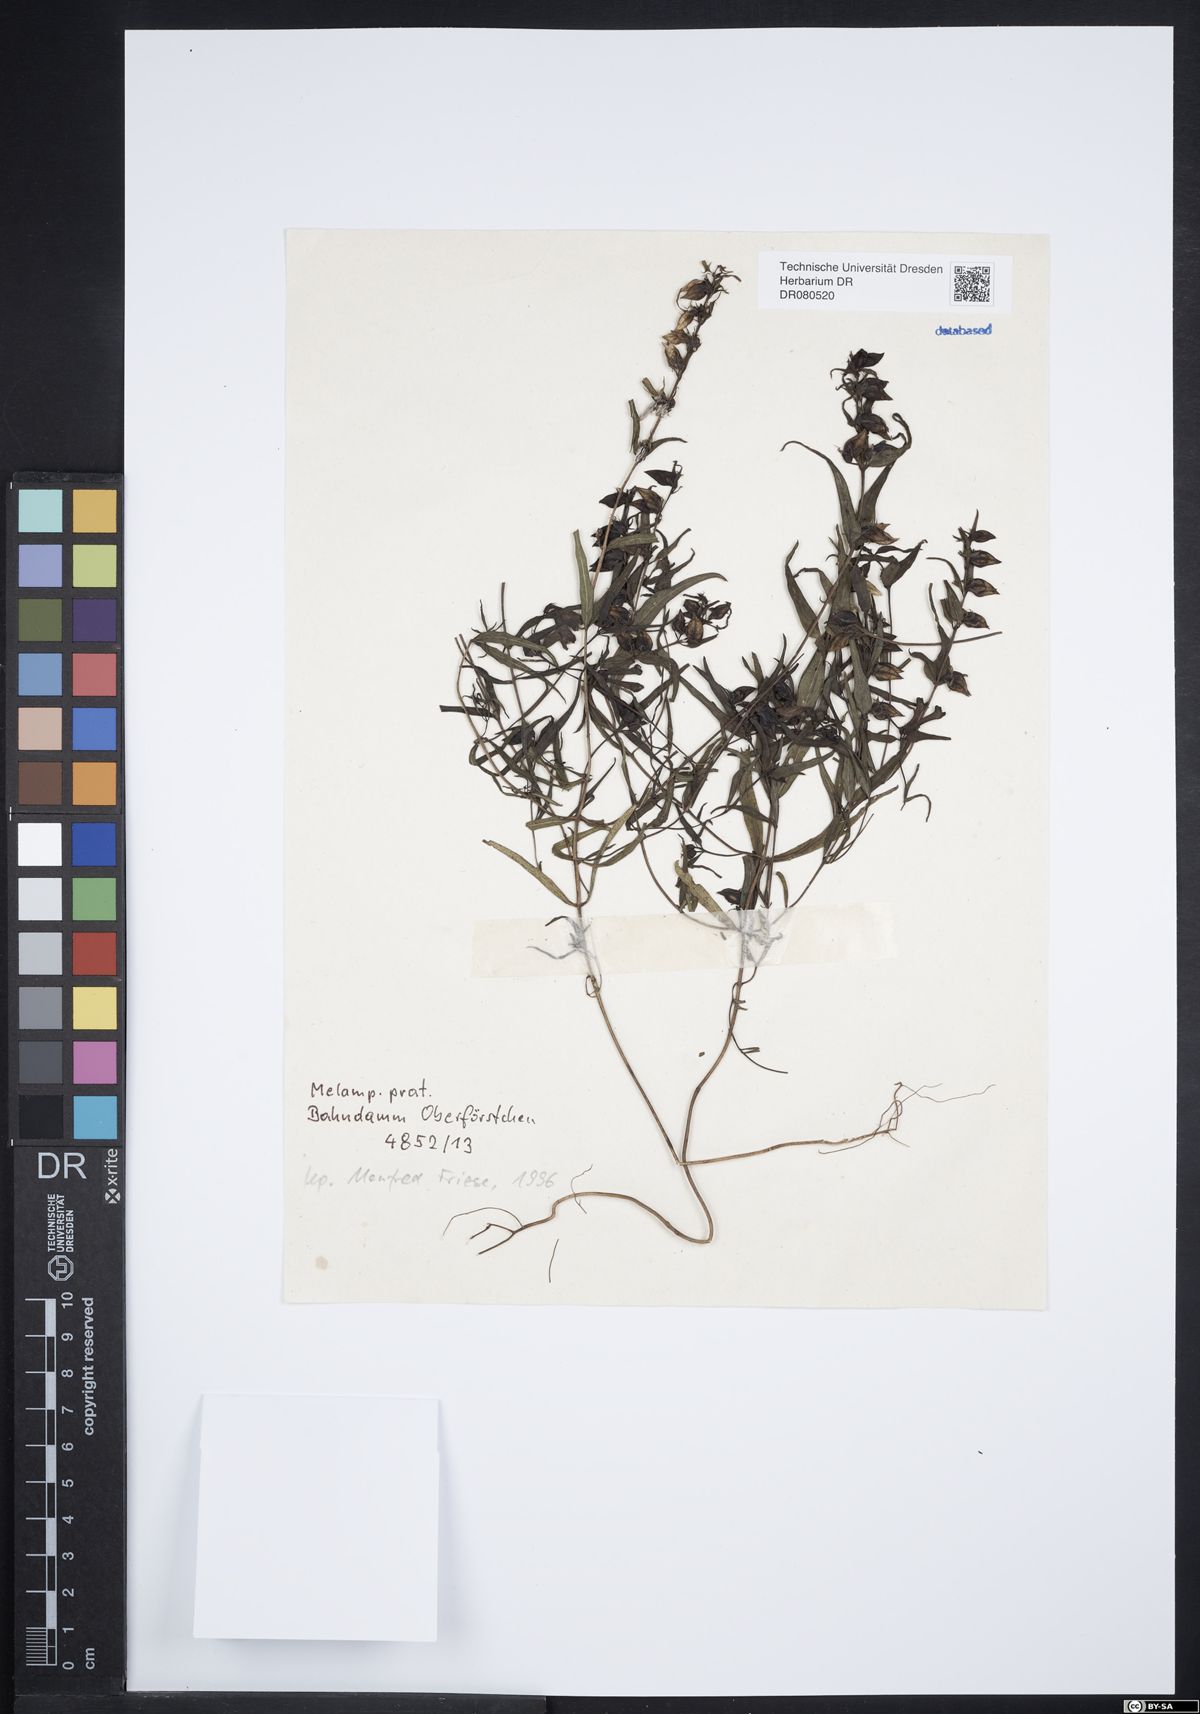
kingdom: Plantae
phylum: Tracheophyta
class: Magnoliopsida
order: Lamiales
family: Orobanchaceae
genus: Melampyrum
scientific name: Melampyrum pratense
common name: Common cow-wheat
